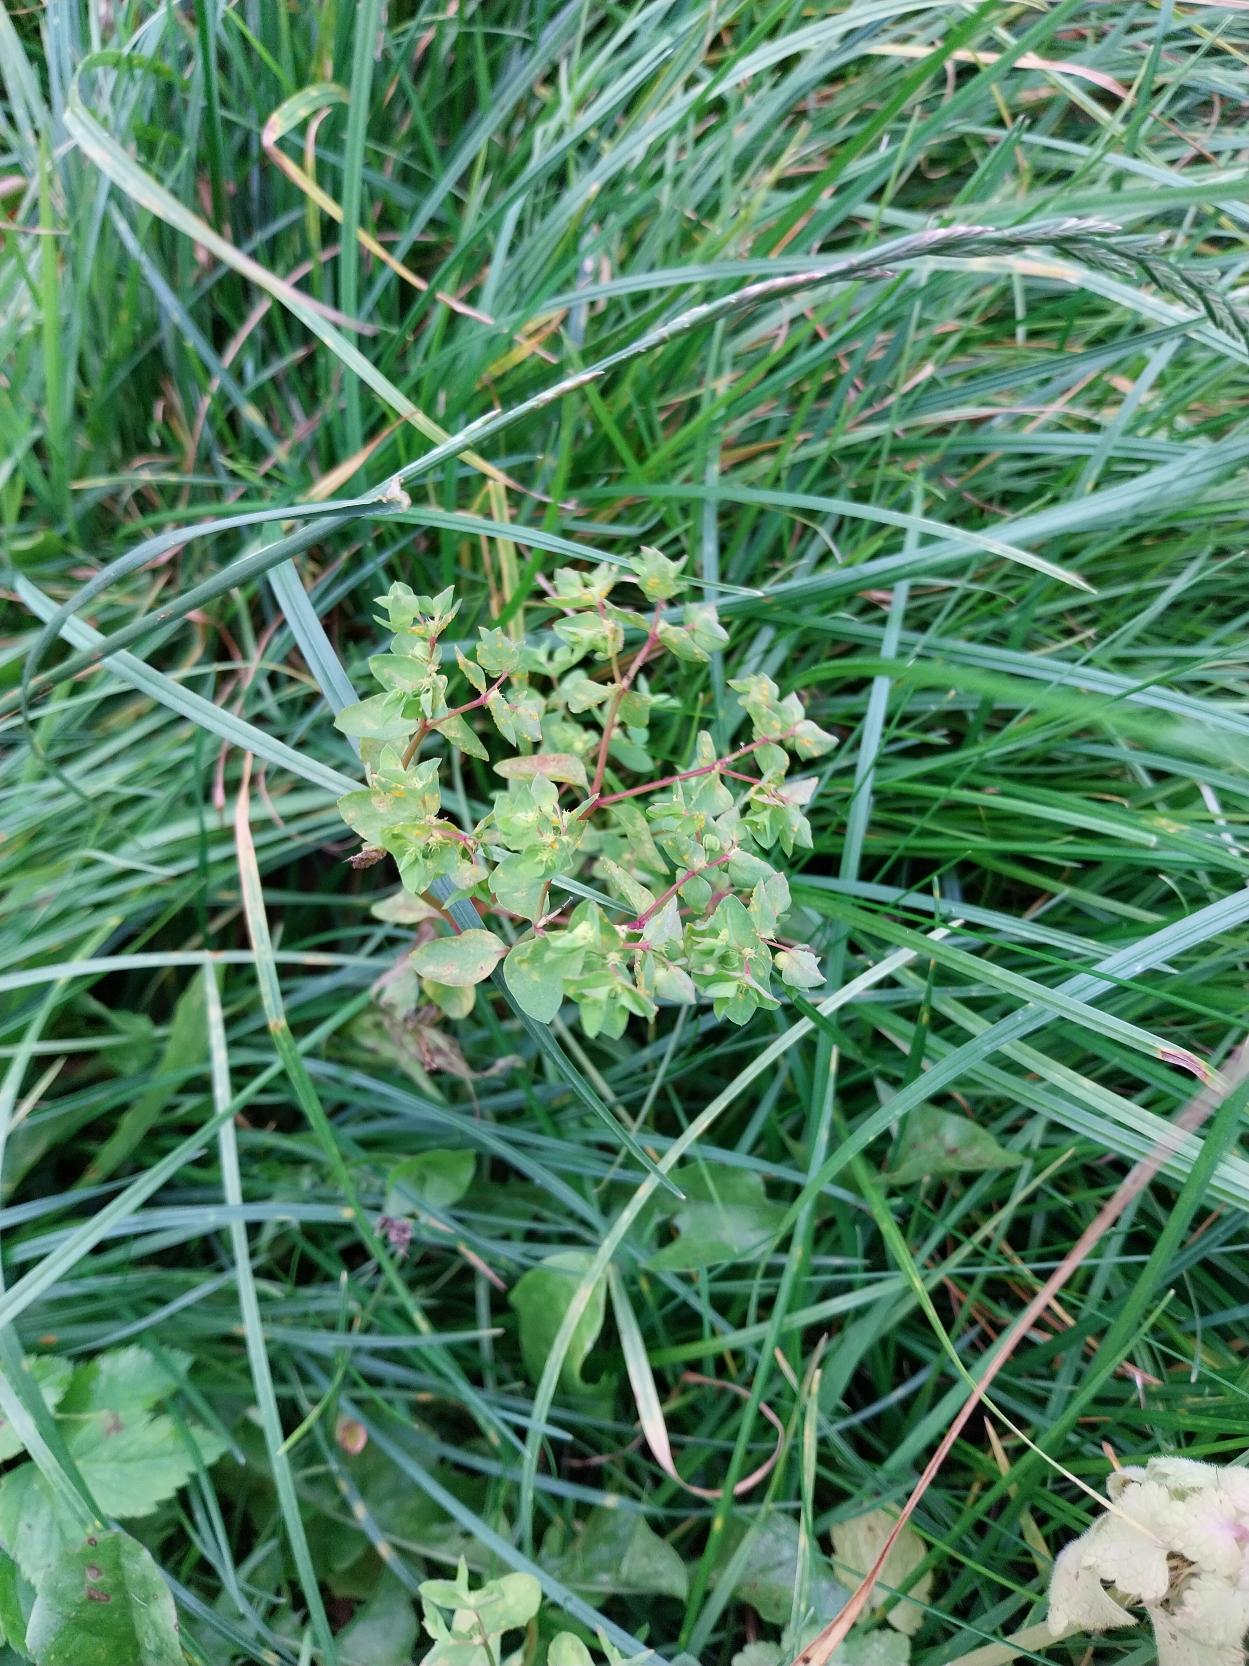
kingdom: Plantae
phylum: Tracheophyta
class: Magnoliopsida
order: Malpighiales
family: Euphorbiaceae
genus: Euphorbia
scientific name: Euphorbia peplus
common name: Gaffel-vortemælk
